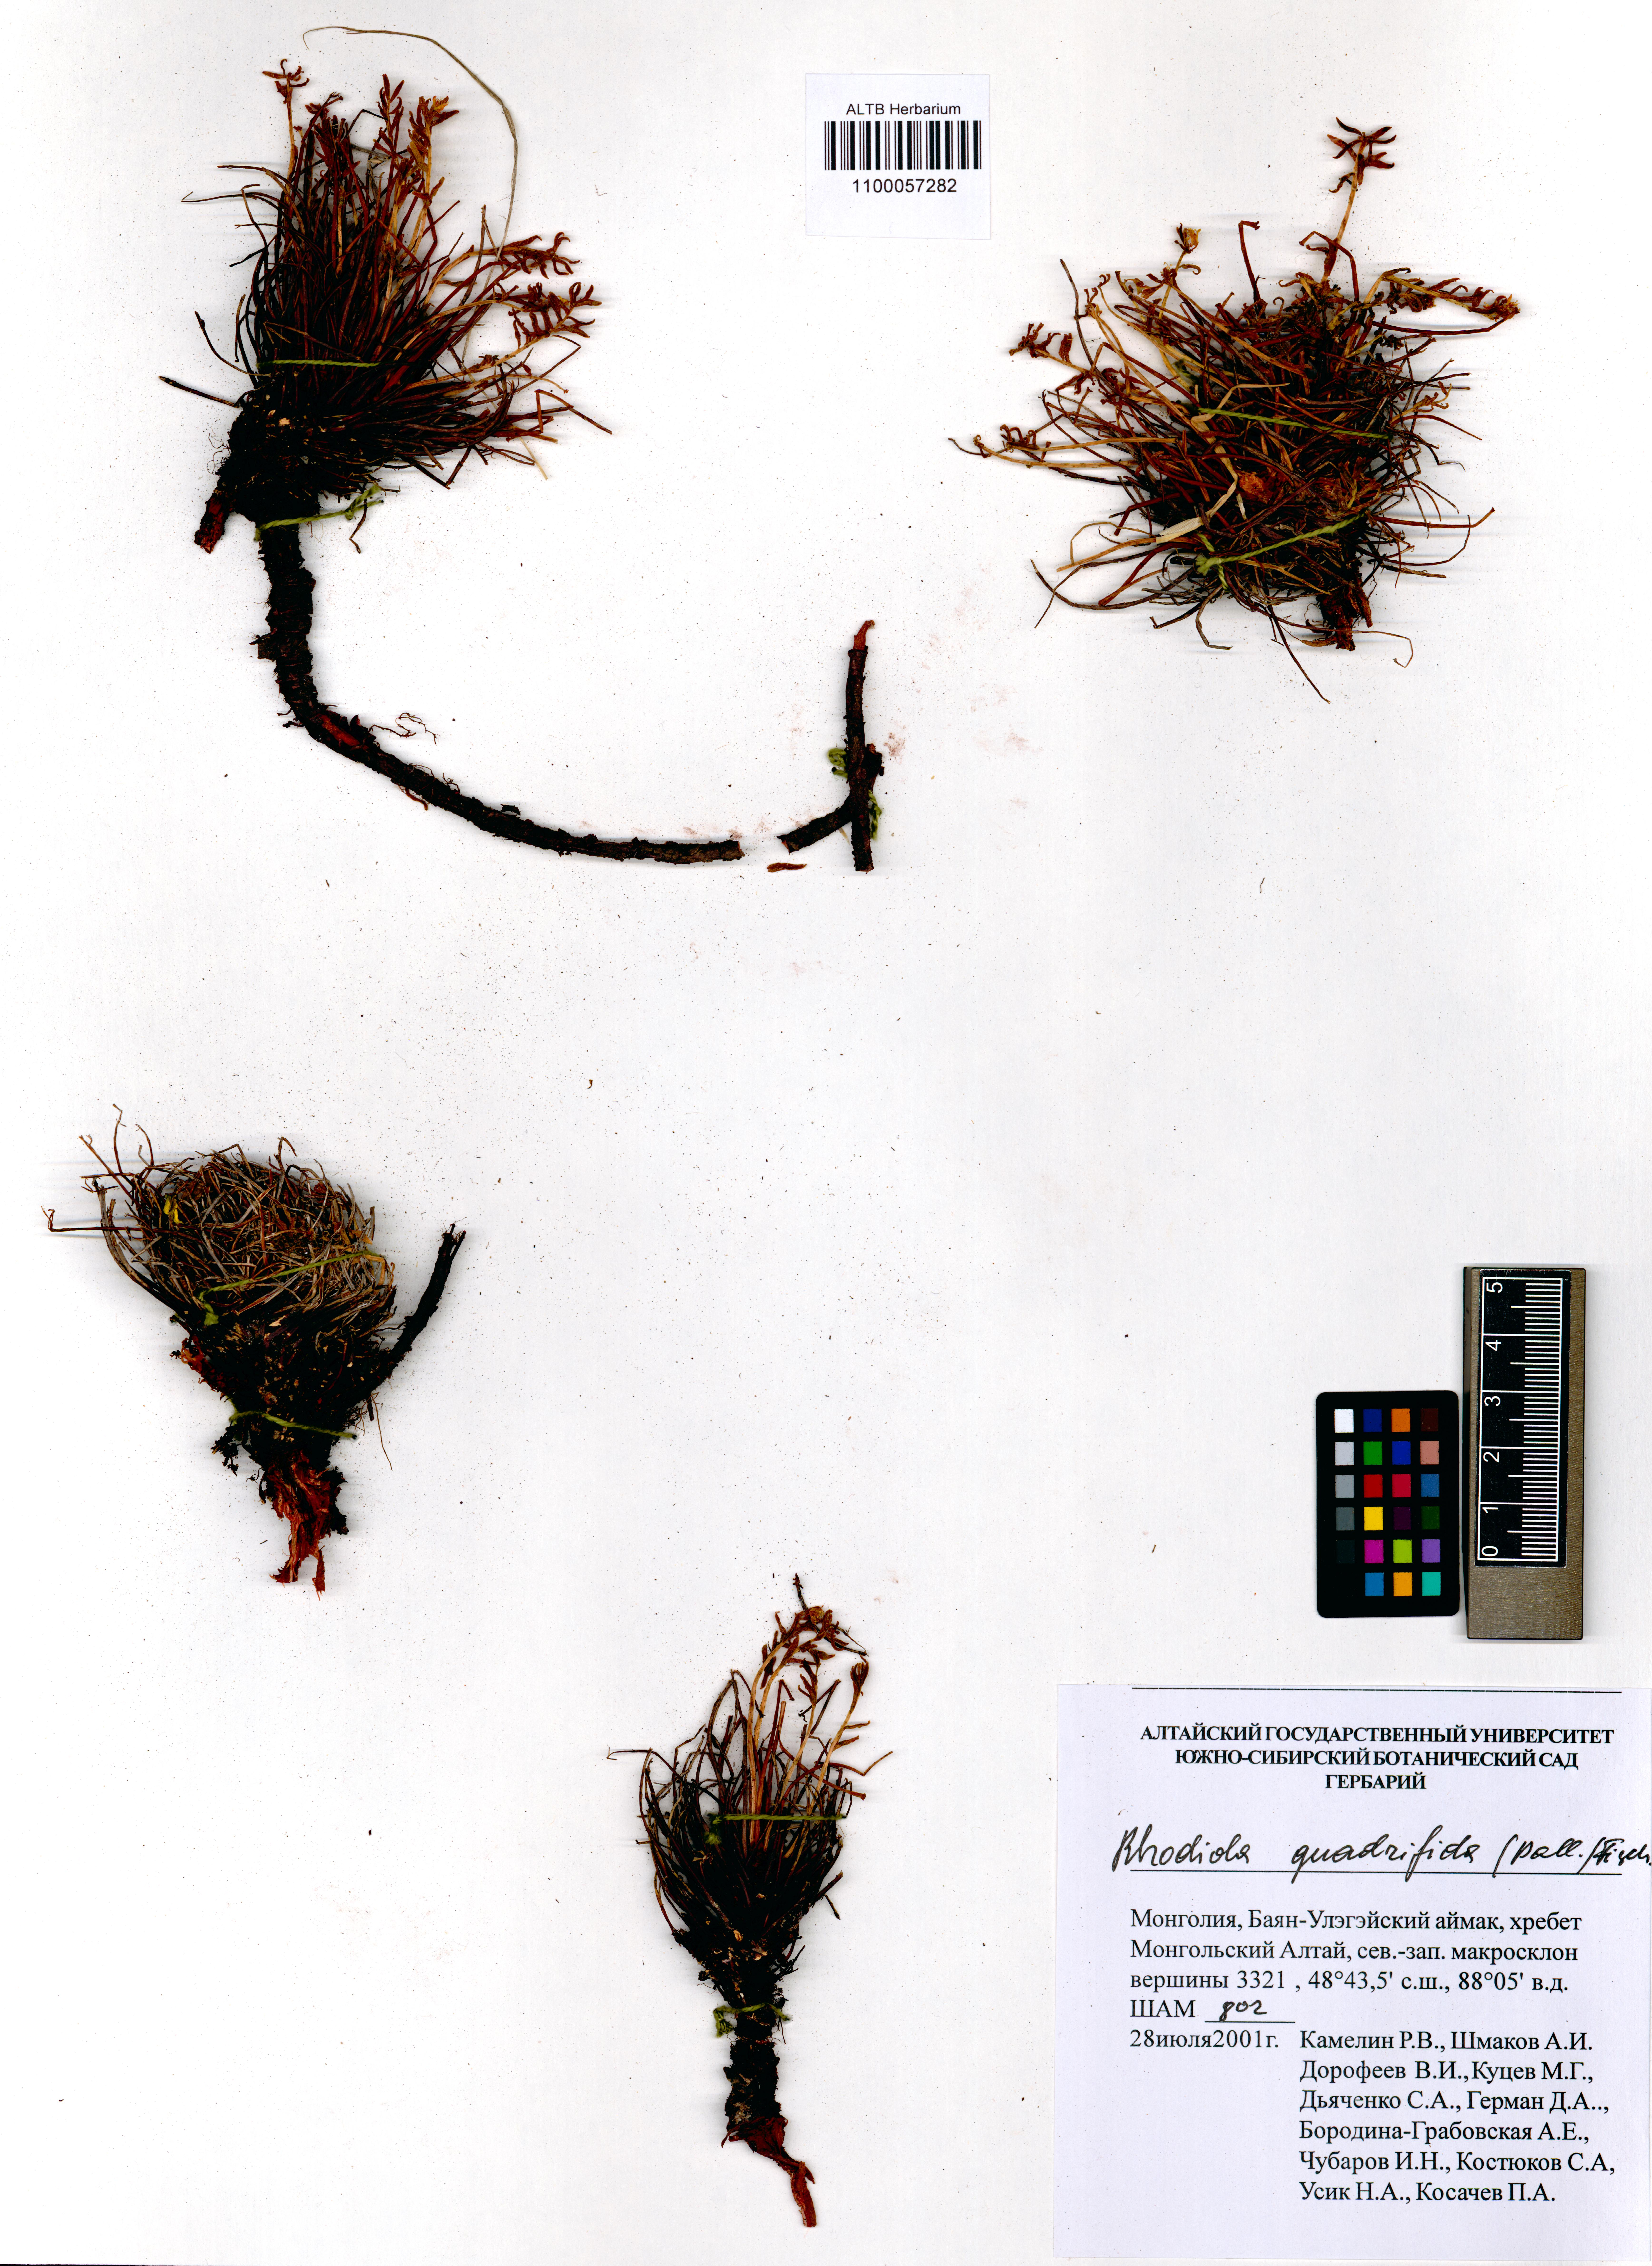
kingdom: Plantae
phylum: Tracheophyta
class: Magnoliopsida
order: Saxifragales
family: Crassulaceae
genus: Rhodiola
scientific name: Rhodiola quadrifida
